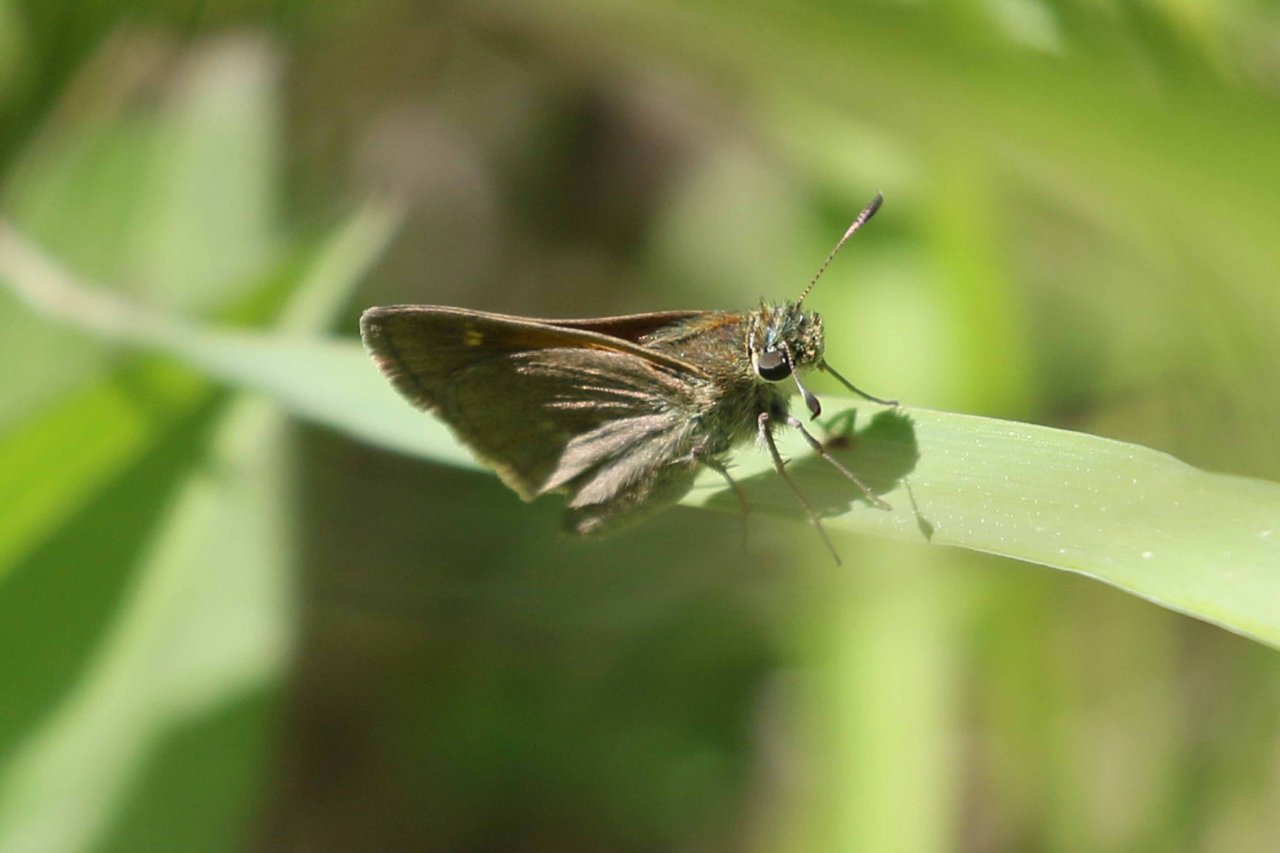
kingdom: Animalia
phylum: Arthropoda
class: Insecta
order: Lepidoptera
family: Hesperiidae
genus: Polites
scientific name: Polites themistocles
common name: Tawny-edged Skipper
